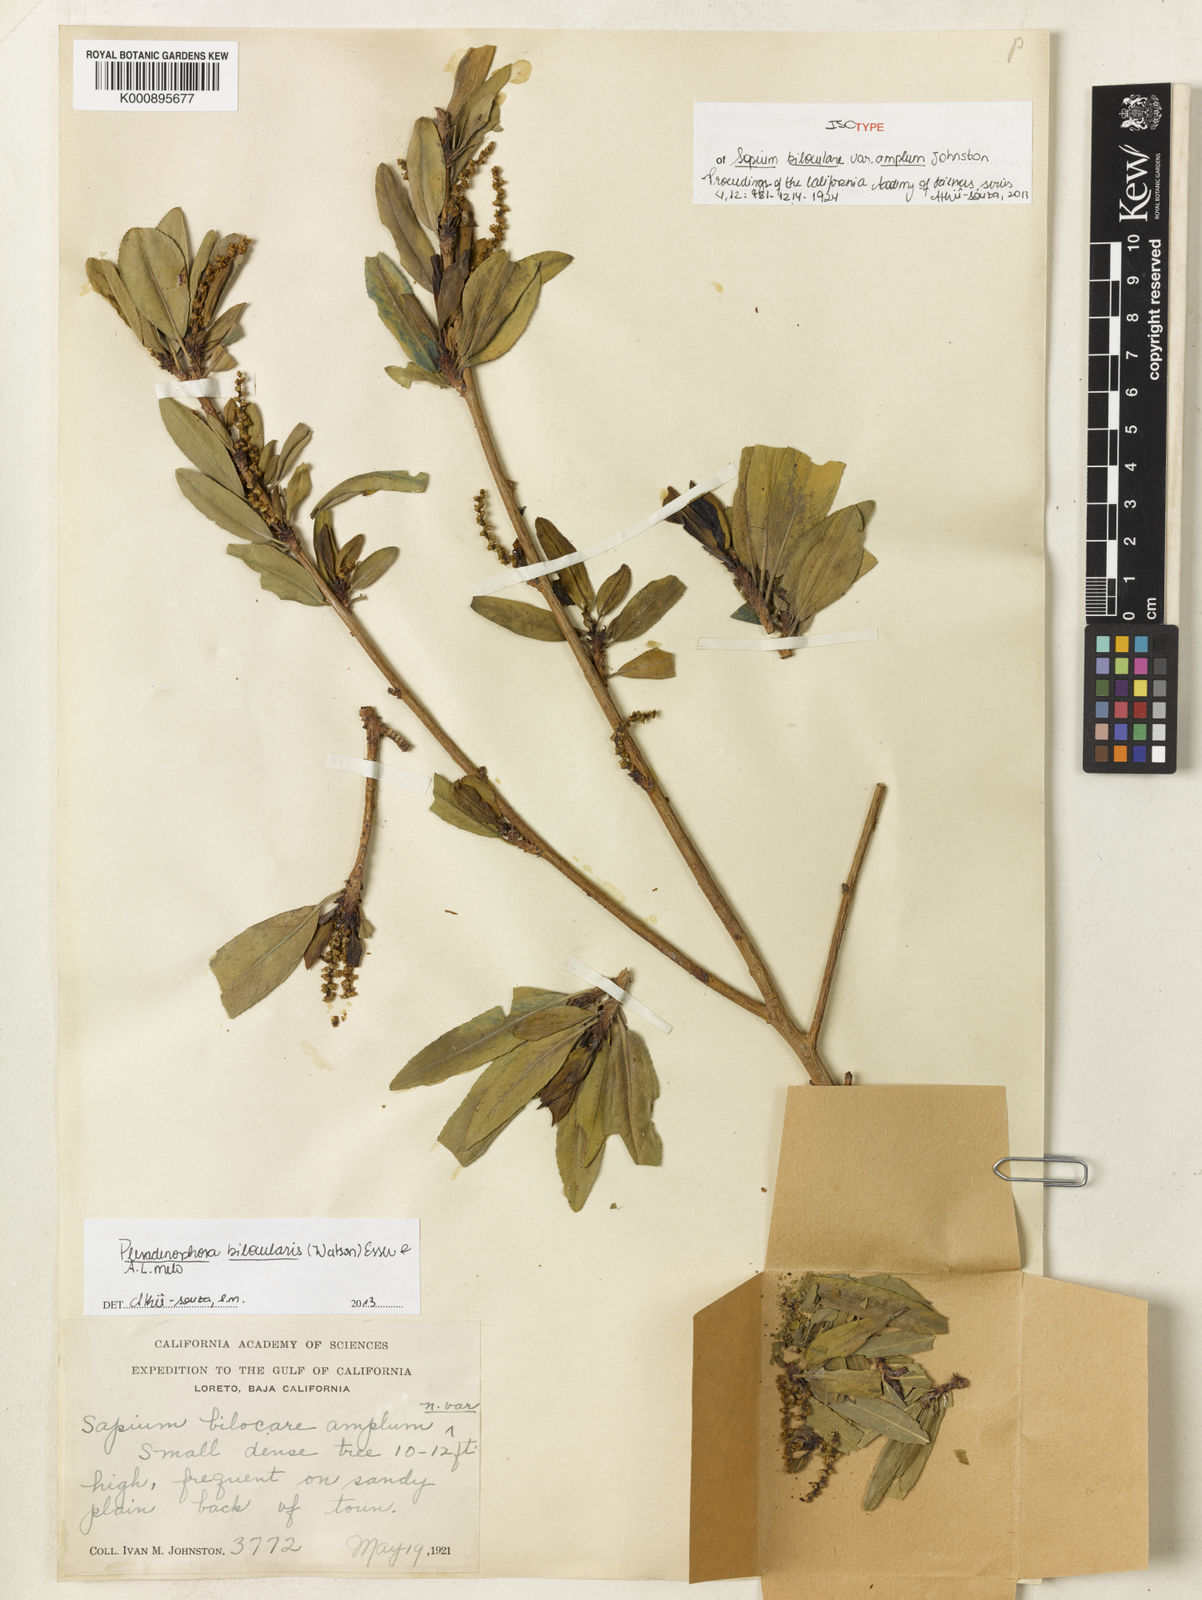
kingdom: Plantae
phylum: Tracheophyta
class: Magnoliopsida
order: Malpighiales
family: Euphorbiaceae
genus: Pleradenophora
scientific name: Pleradenophora bilocularis
